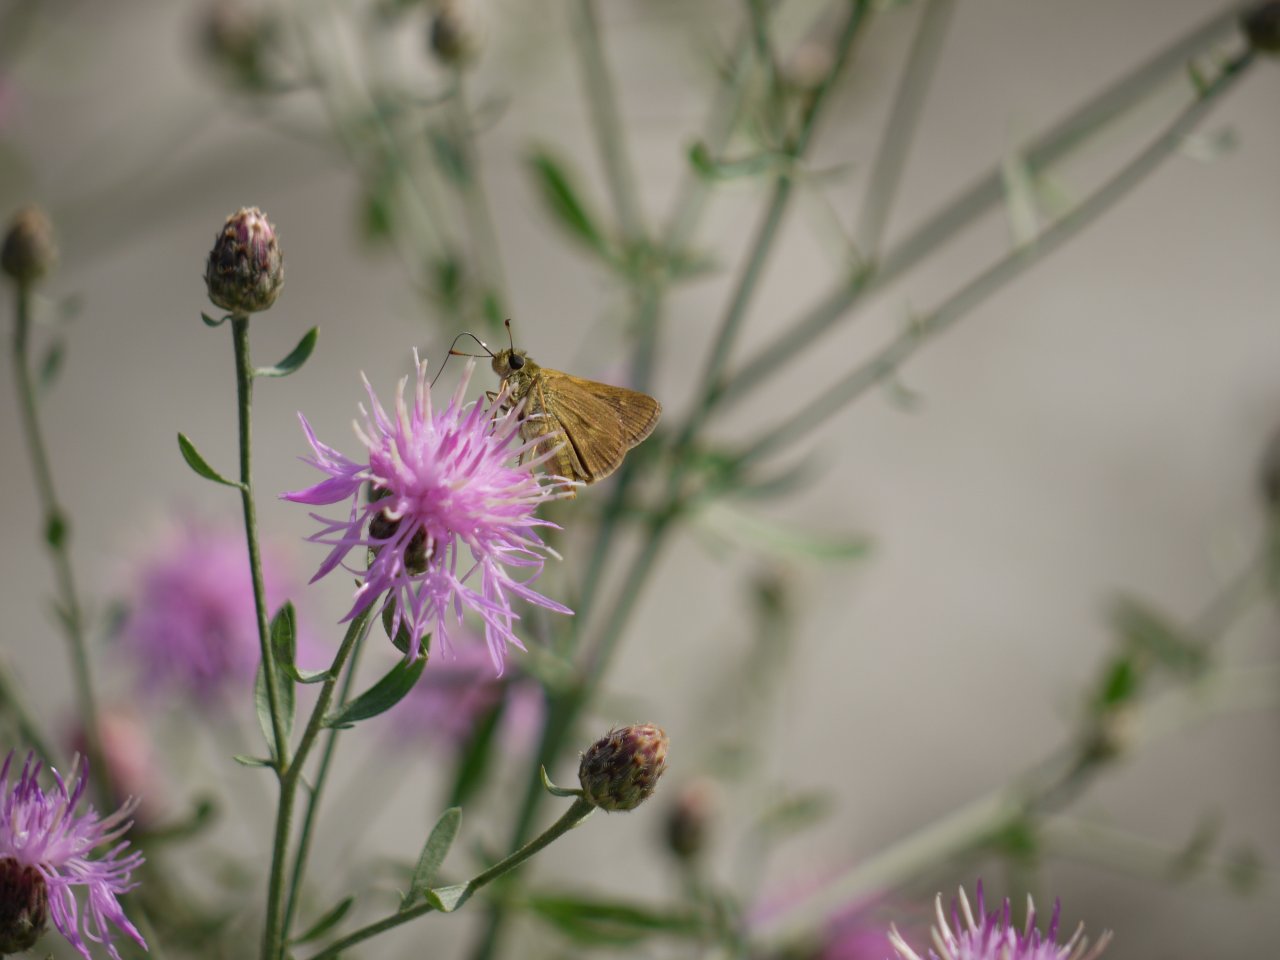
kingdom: Animalia
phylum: Arthropoda
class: Insecta
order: Lepidoptera
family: Hesperiidae
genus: Euphyes
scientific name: Euphyes vestris
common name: Dun Skipper
